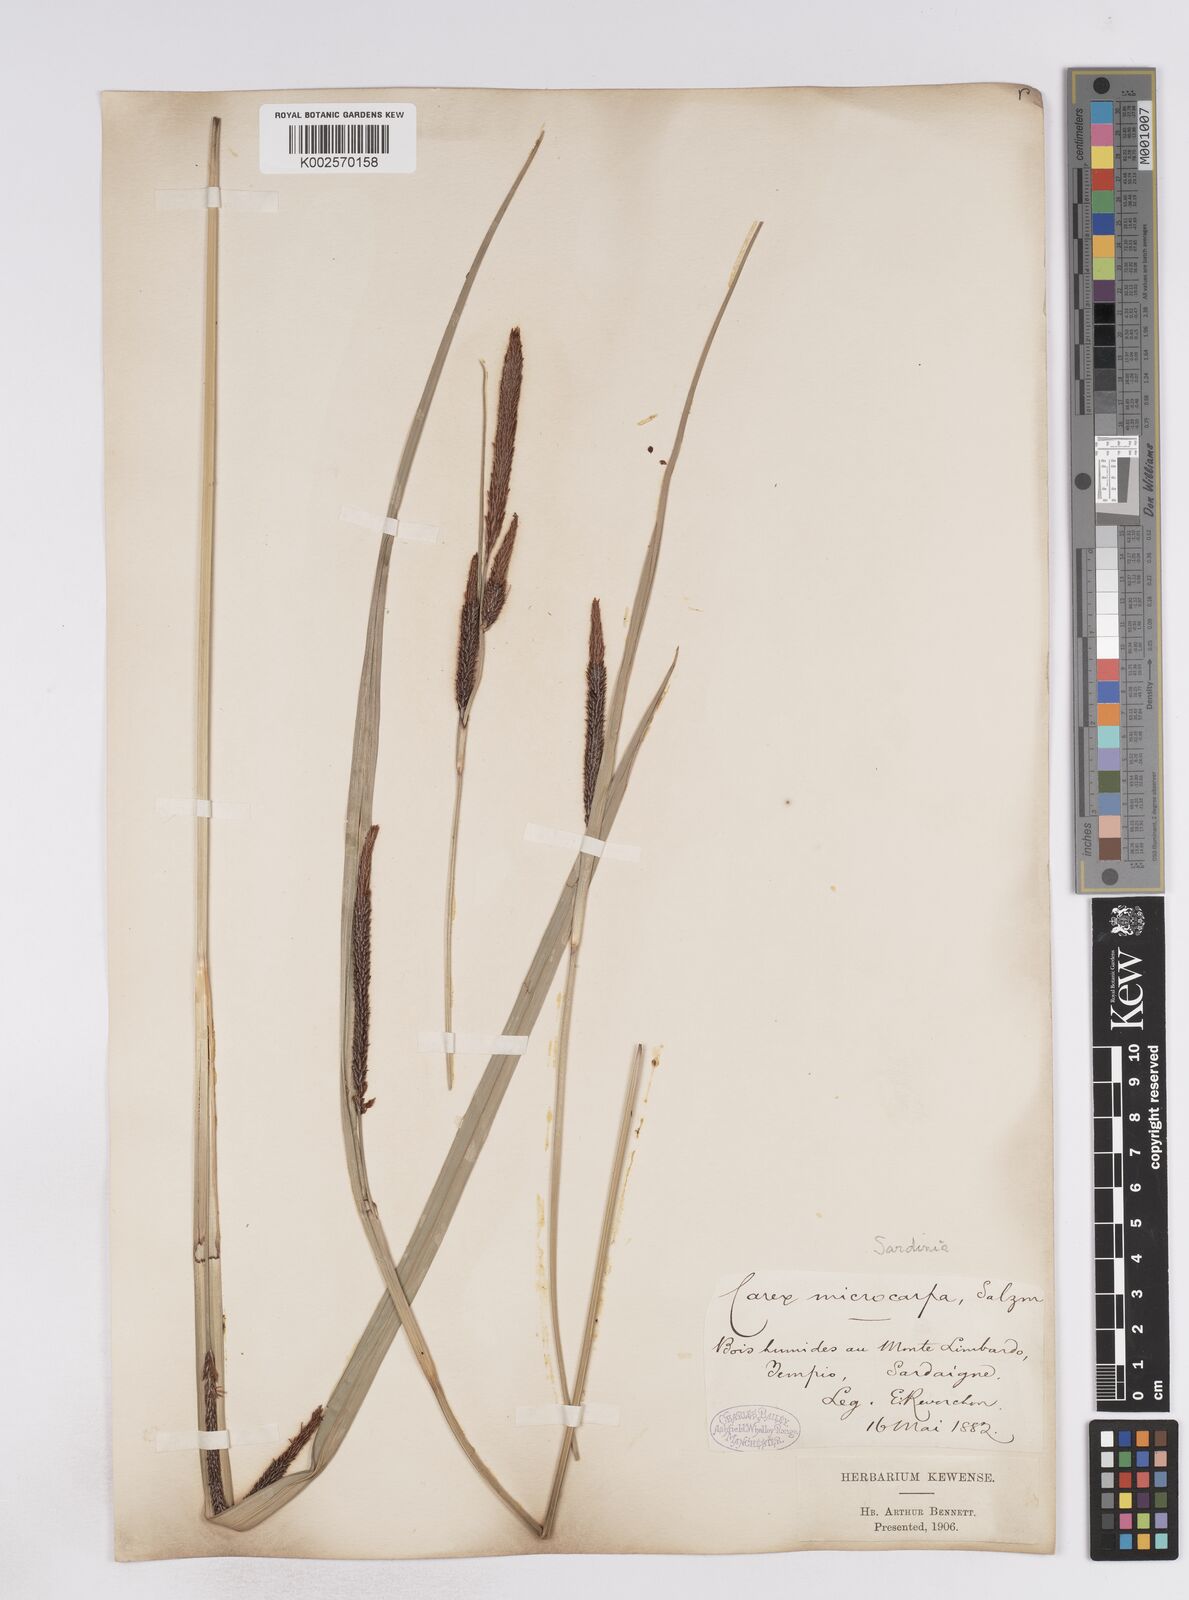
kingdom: Plantae
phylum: Tracheophyta
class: Liliopsida
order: Poales
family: Cyperaceae
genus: Carex
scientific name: Carex microcarpa
